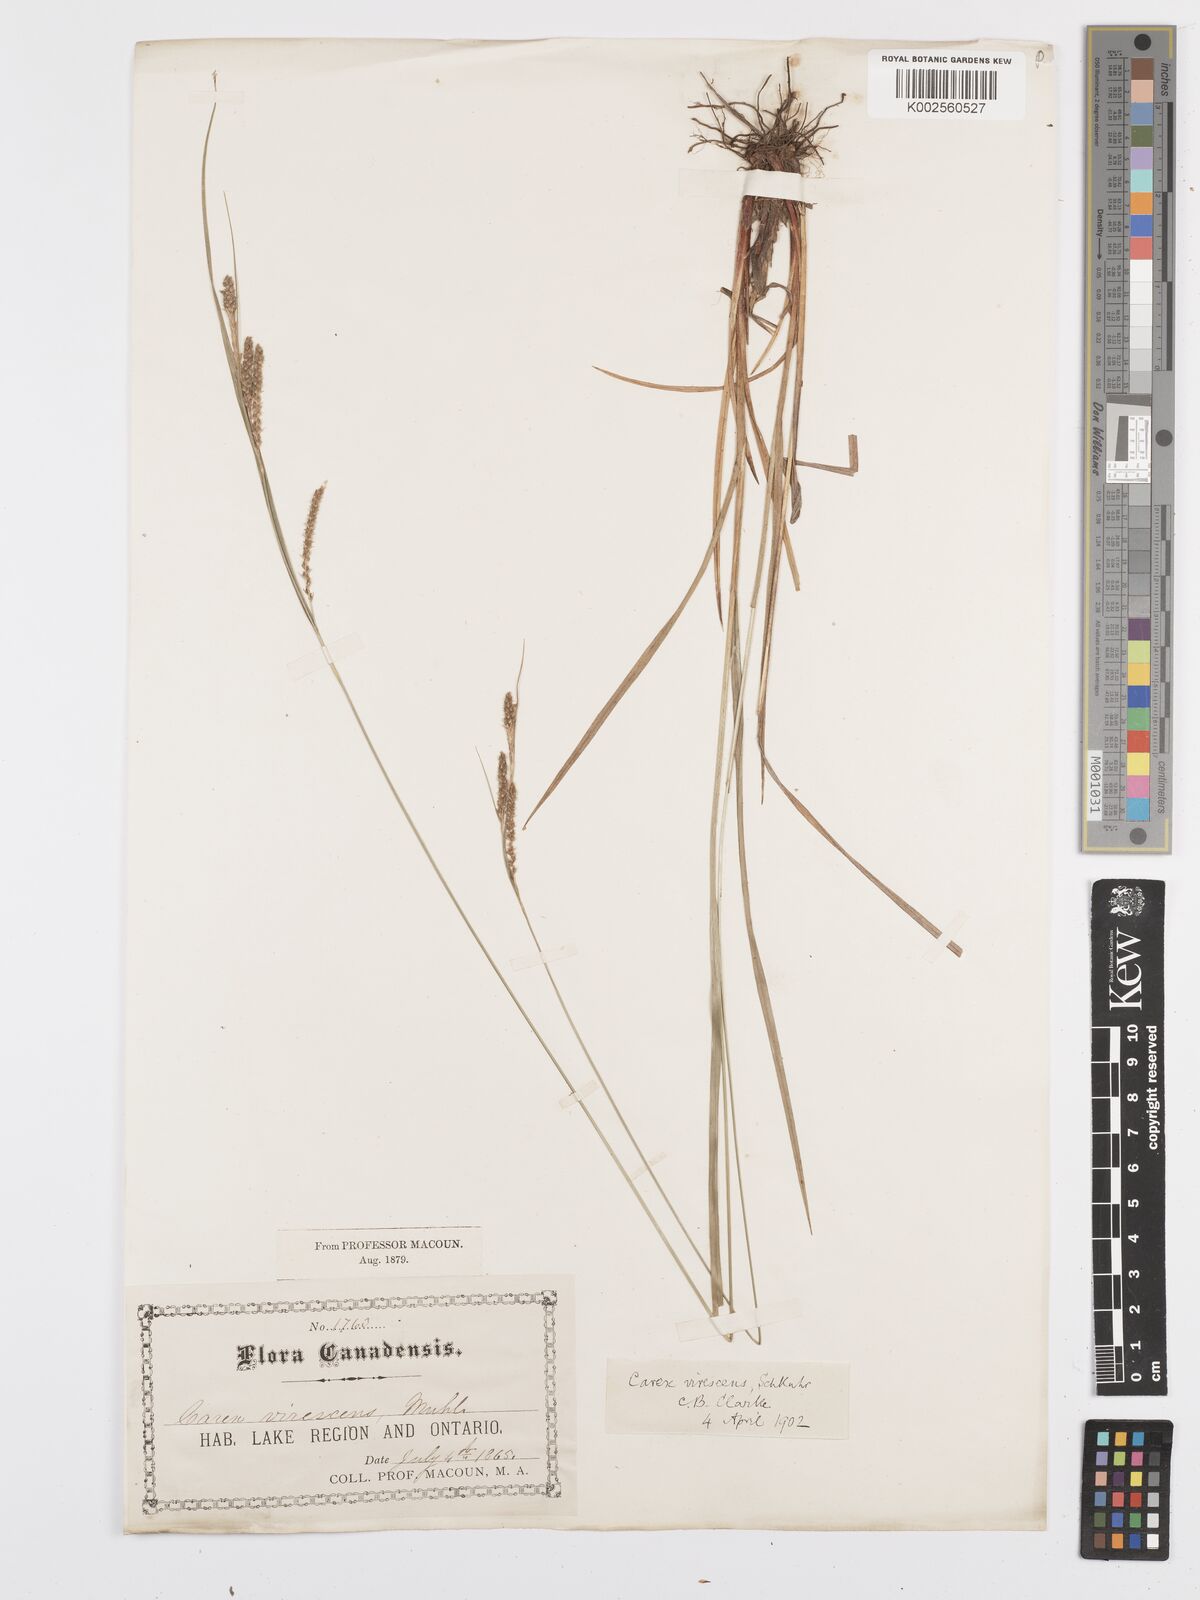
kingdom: Plantae
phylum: Tracheophyta
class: Liliopsida
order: Poales
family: Cyperaceae
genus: Carex
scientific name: Carex virescens
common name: Ribbed sedge
